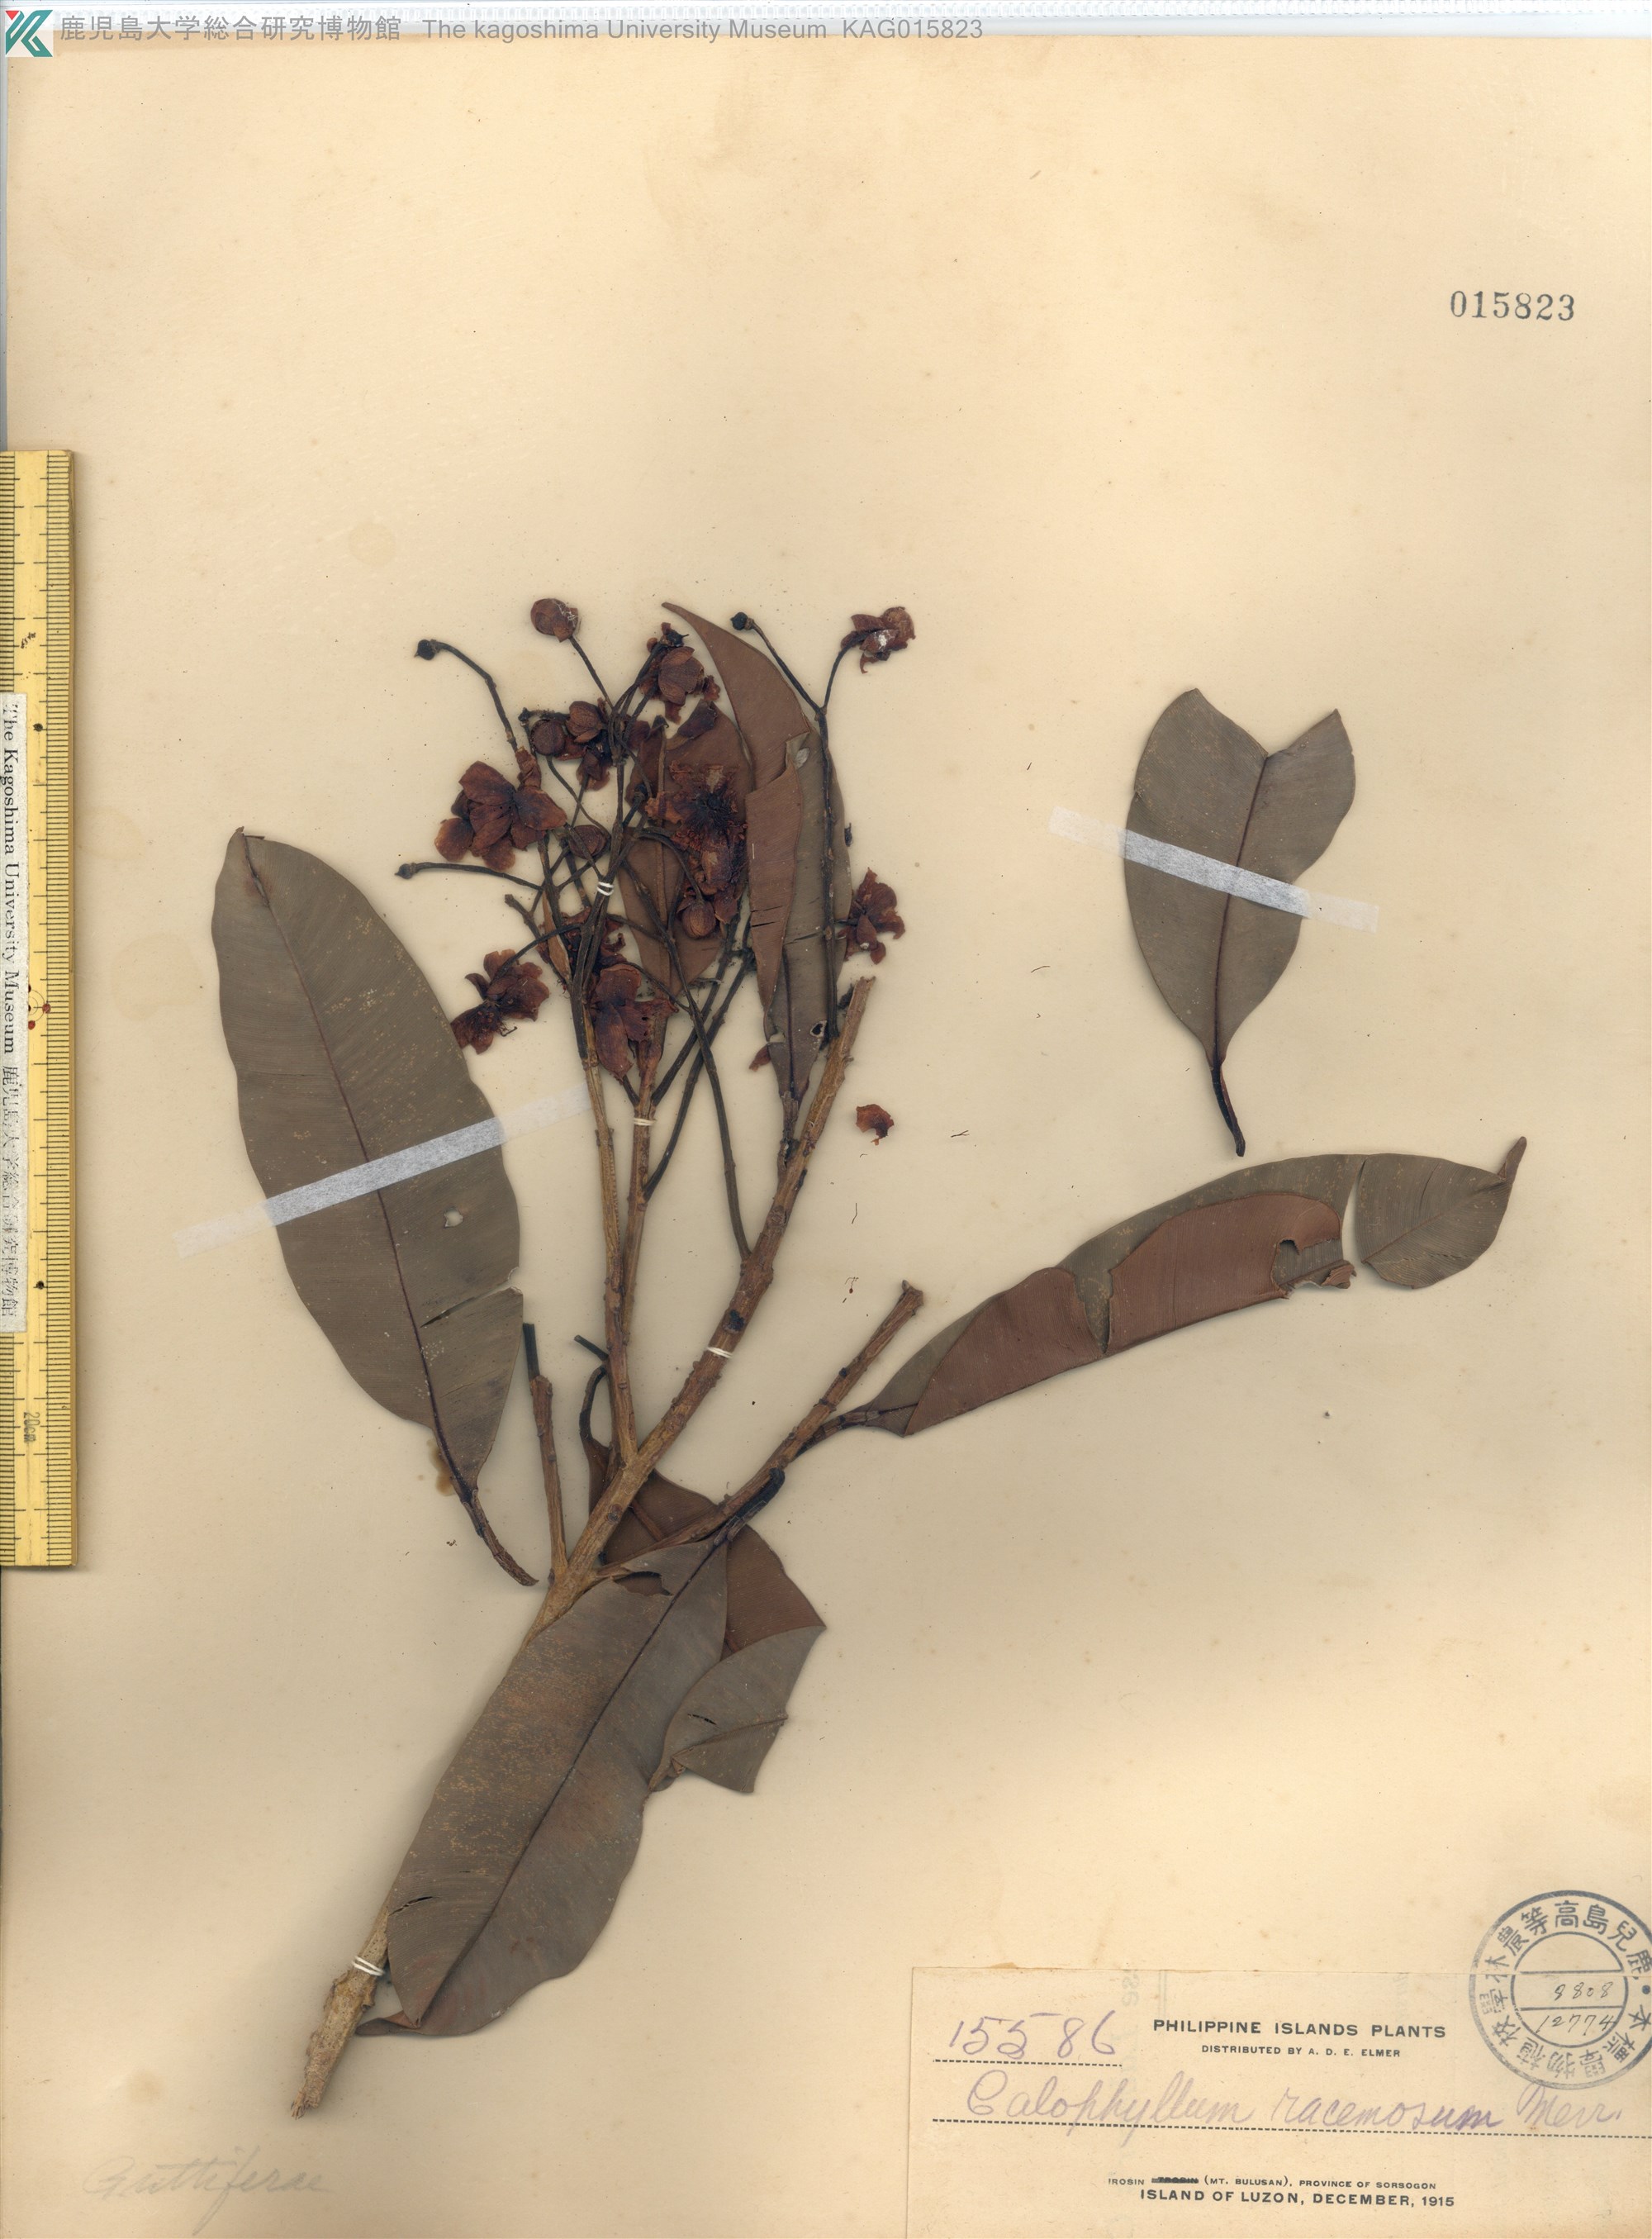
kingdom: Plantae
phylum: Tracheophyta
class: Magnoliopsida
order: Malpighiales
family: Calophyllaceae
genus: Calophyllum
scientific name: Calophyllum blancoi
